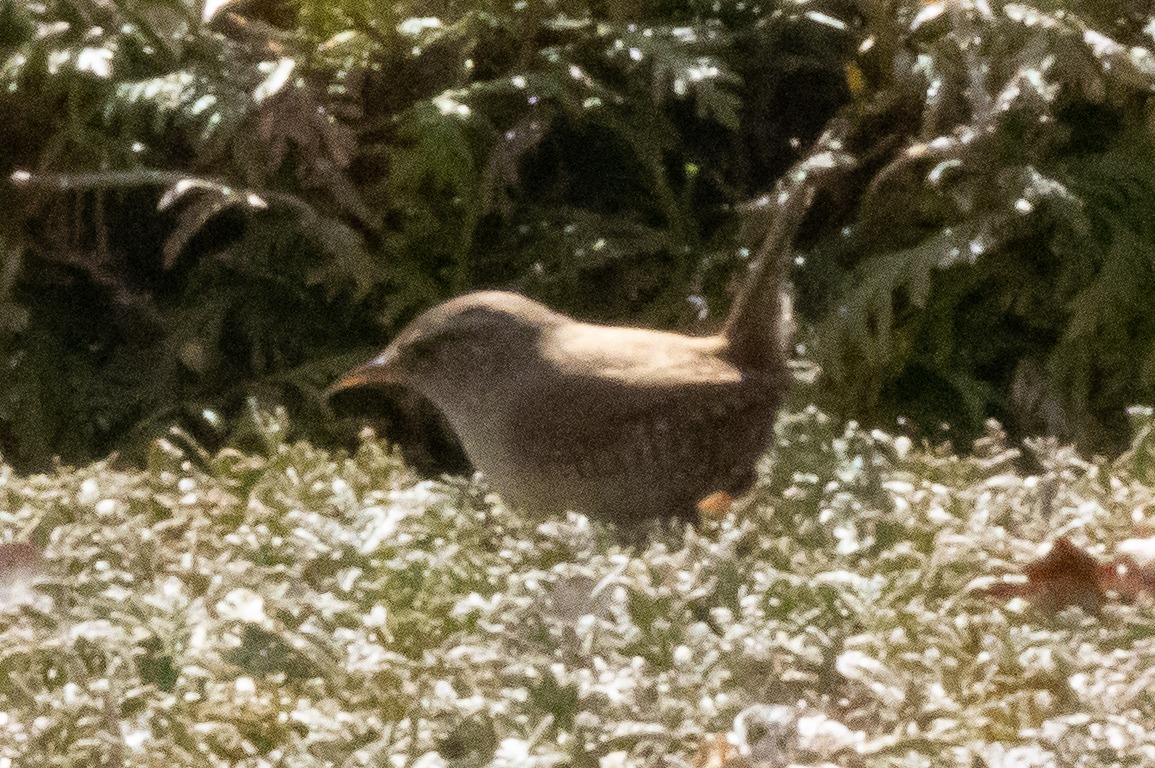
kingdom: Animalia
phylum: Chordata
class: Aves
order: Passeriformes
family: Troglodytidae
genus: Troglodytes
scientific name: Troglodytes troglodytes
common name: Gærdesmutte
